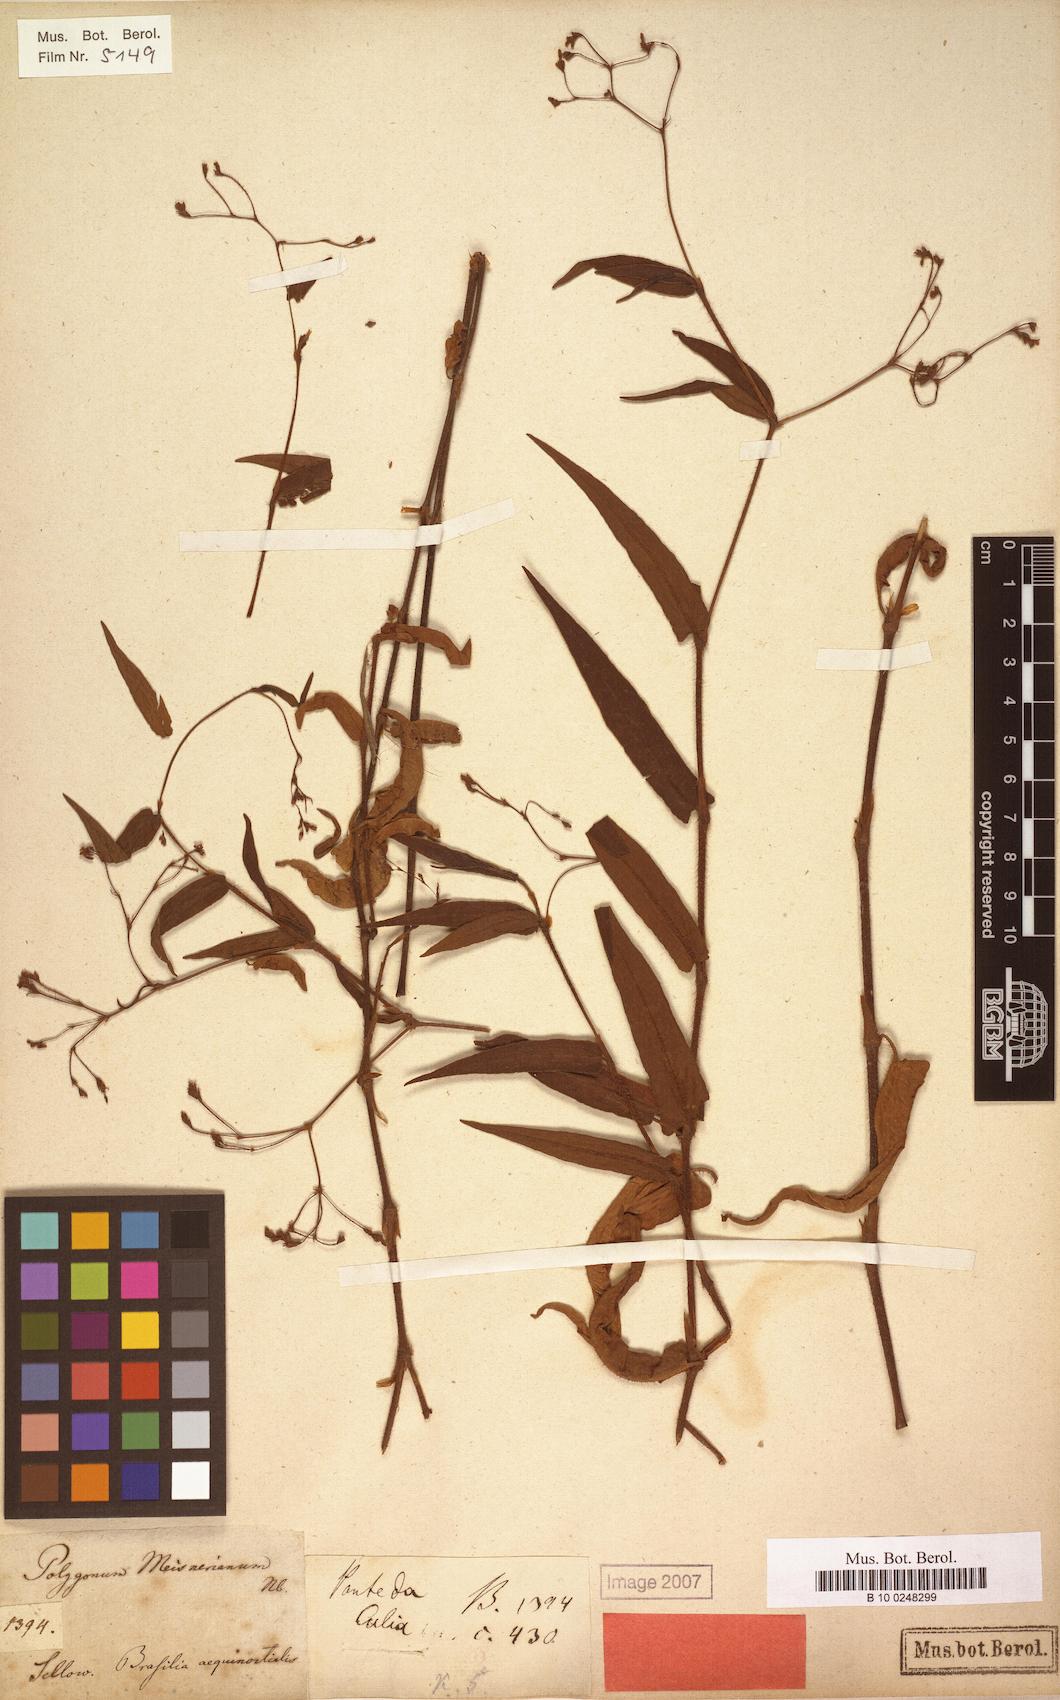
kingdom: Plantae
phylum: Tracheophyta
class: Magnoliopsida
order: Caryophyllales
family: Polygonaceae
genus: Persicaria
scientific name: Persicaria meisneriana
